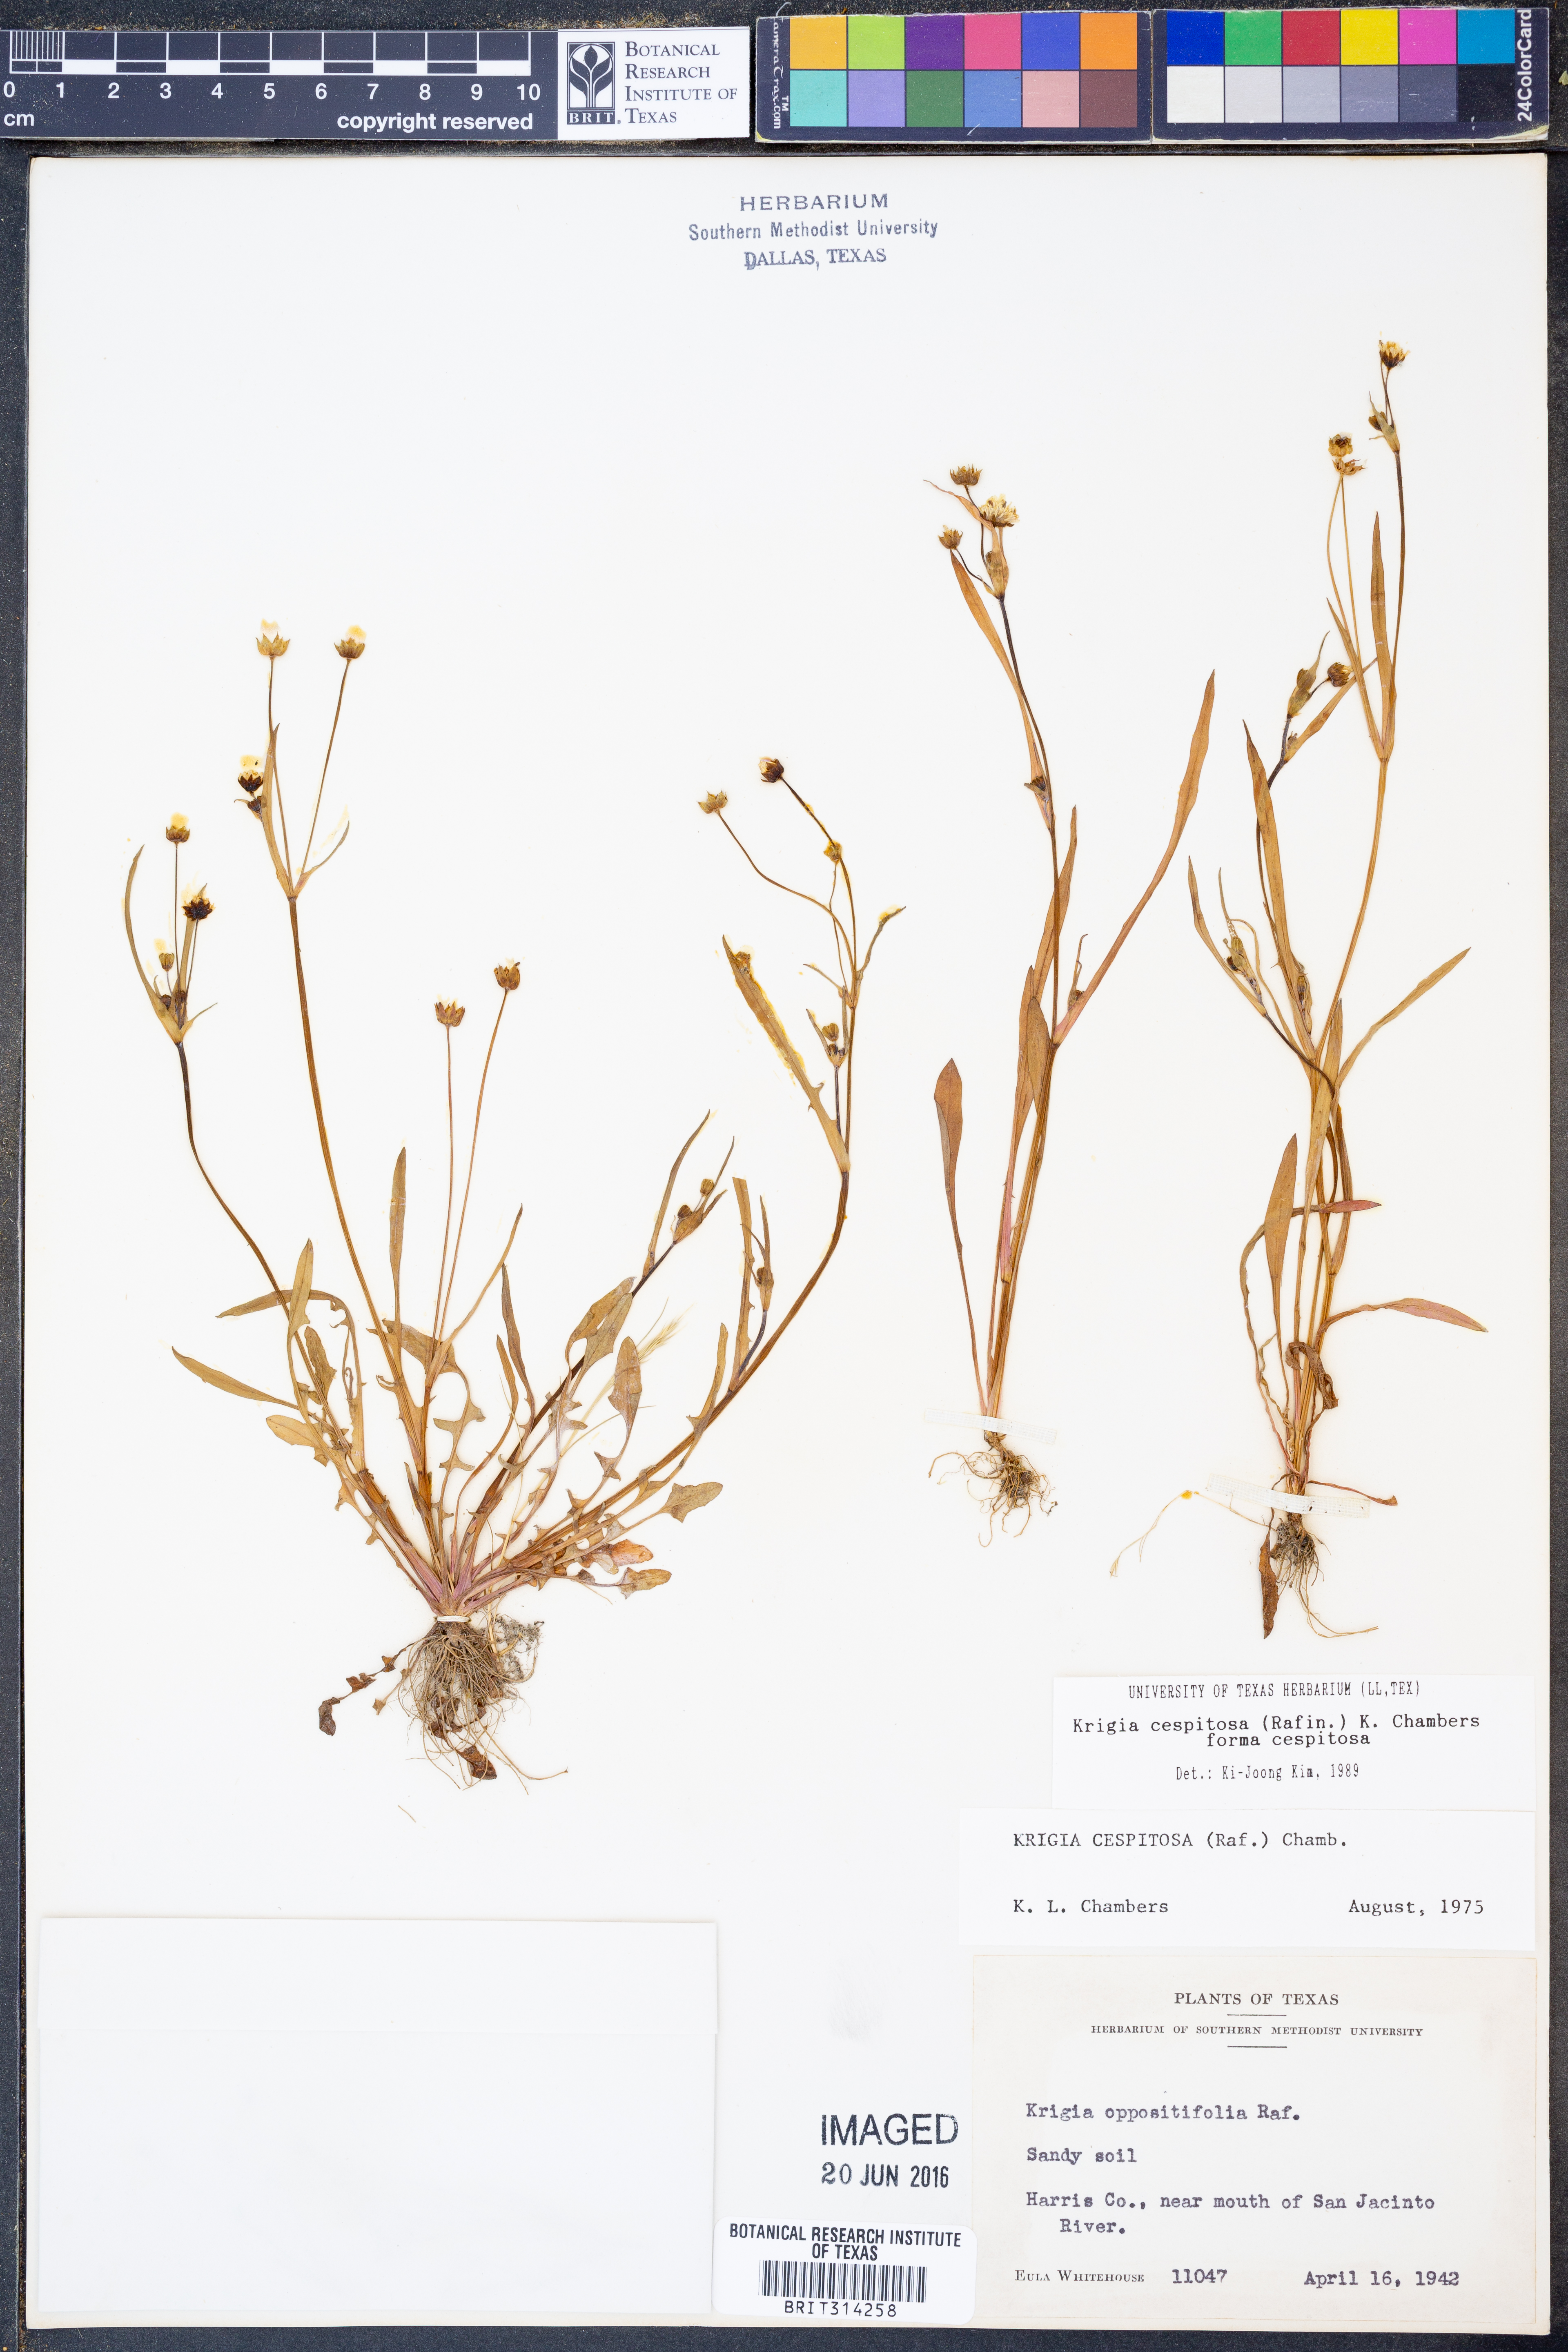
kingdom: Plantae
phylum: Tracheophyta
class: Magnoliopsida
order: Asterales
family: Asteraceae
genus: Krigia
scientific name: Krigia cespitosa
